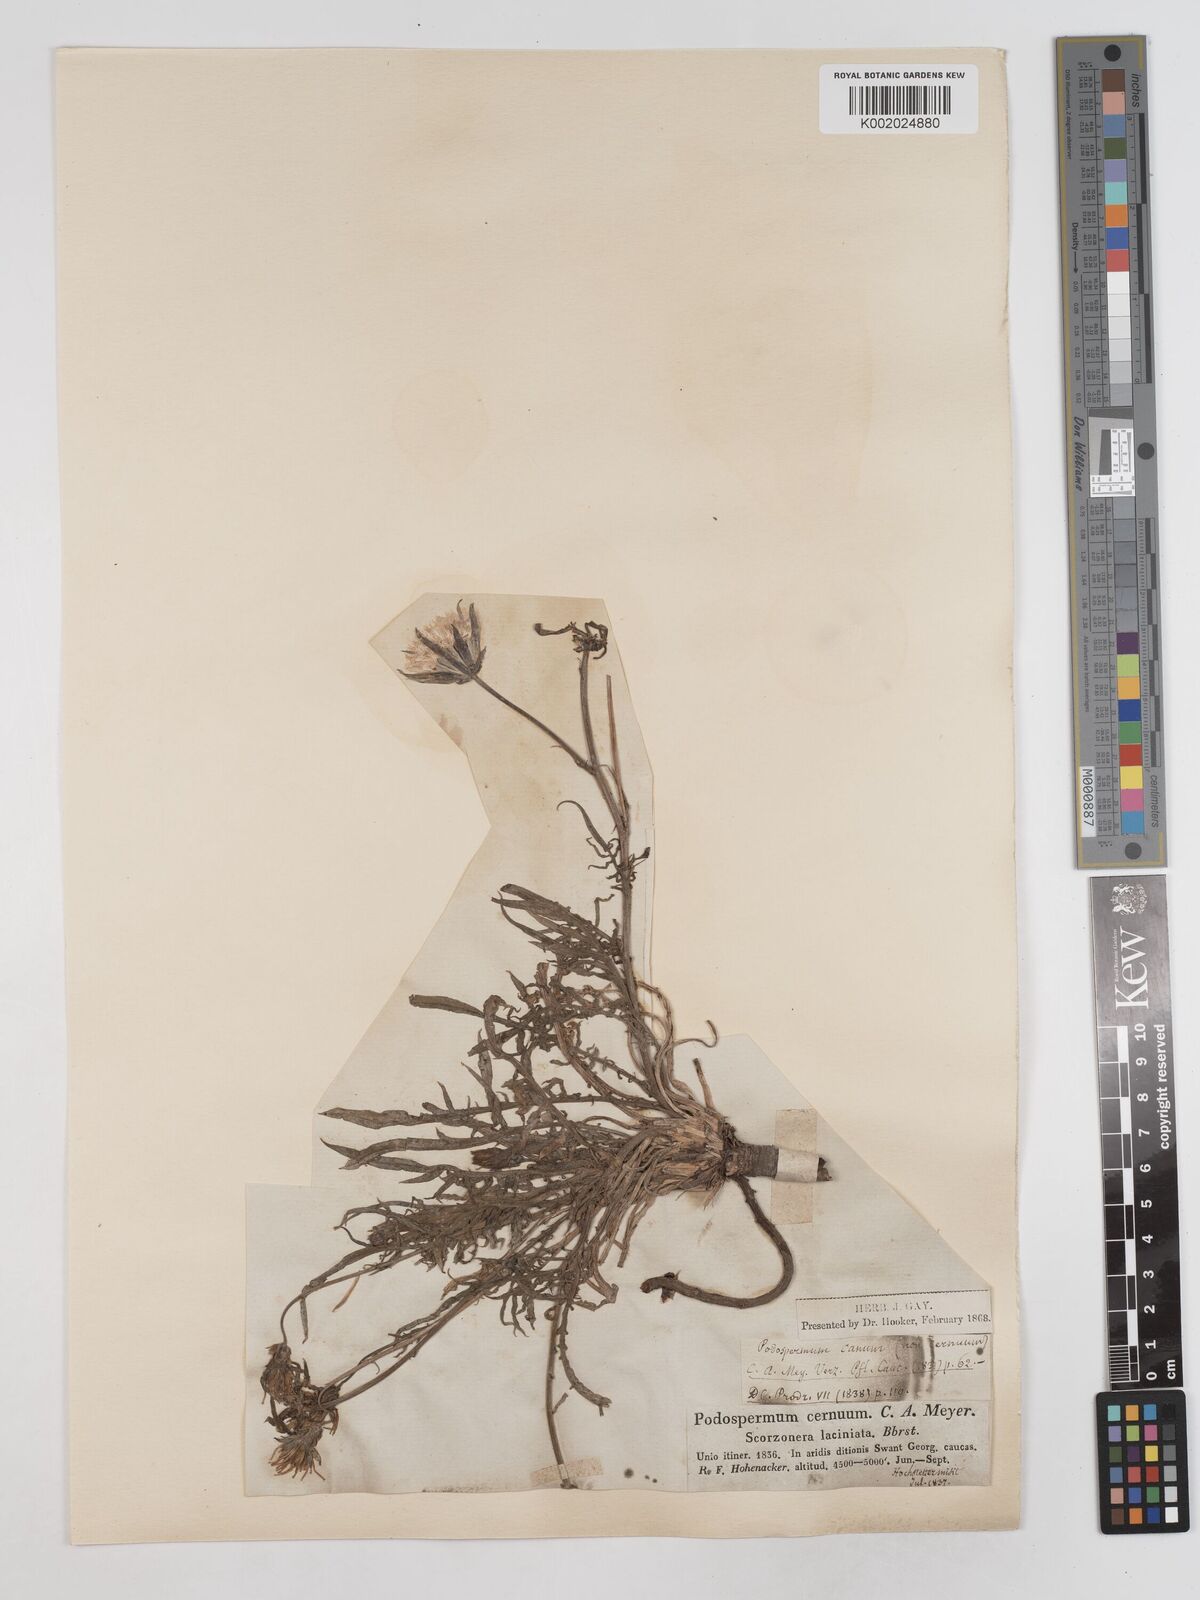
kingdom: Plantae
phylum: Tracheophyta
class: Magnoliopsida
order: Asterales
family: Asteraceae
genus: Scorzonera
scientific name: Scorzonera alpigena
